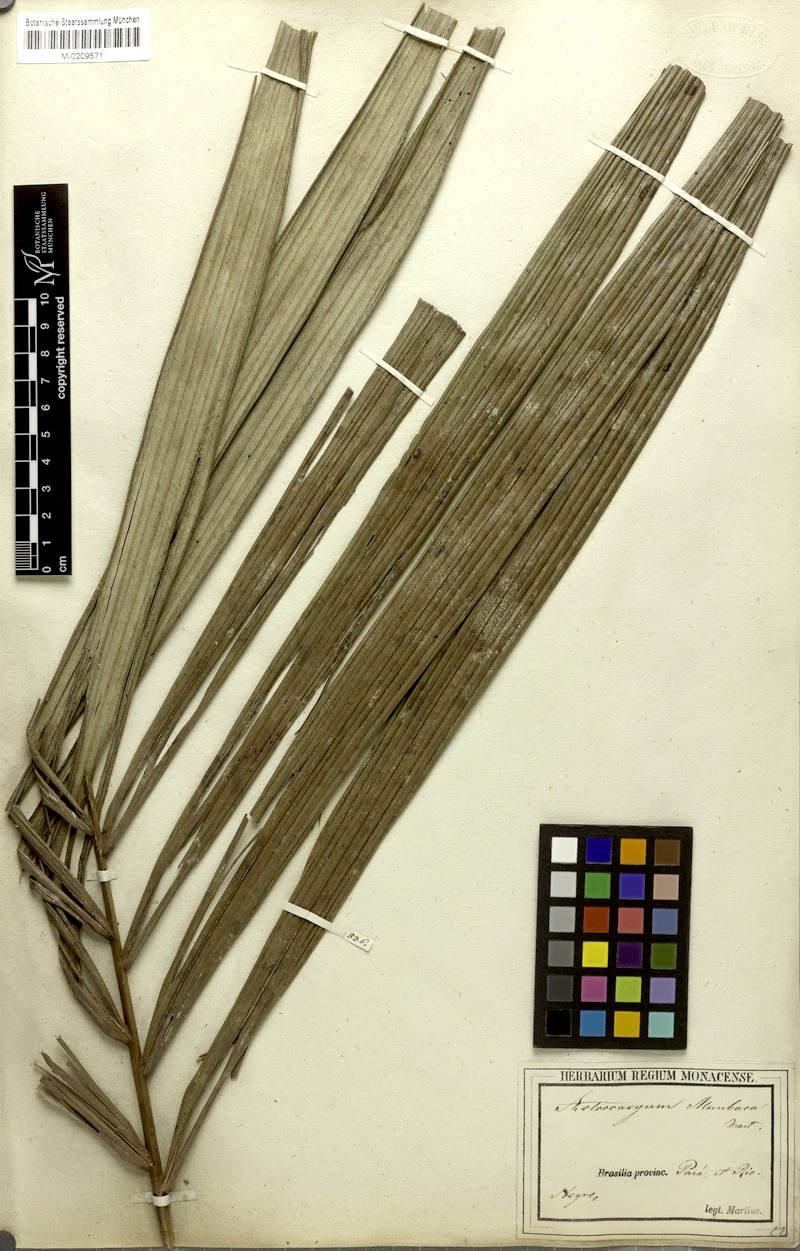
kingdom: Plantae
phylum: Tracheophyta
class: Liliopsida
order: Arecales
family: Arecaceae
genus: Astrocaryum
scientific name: Astrocaryum aculeatum
